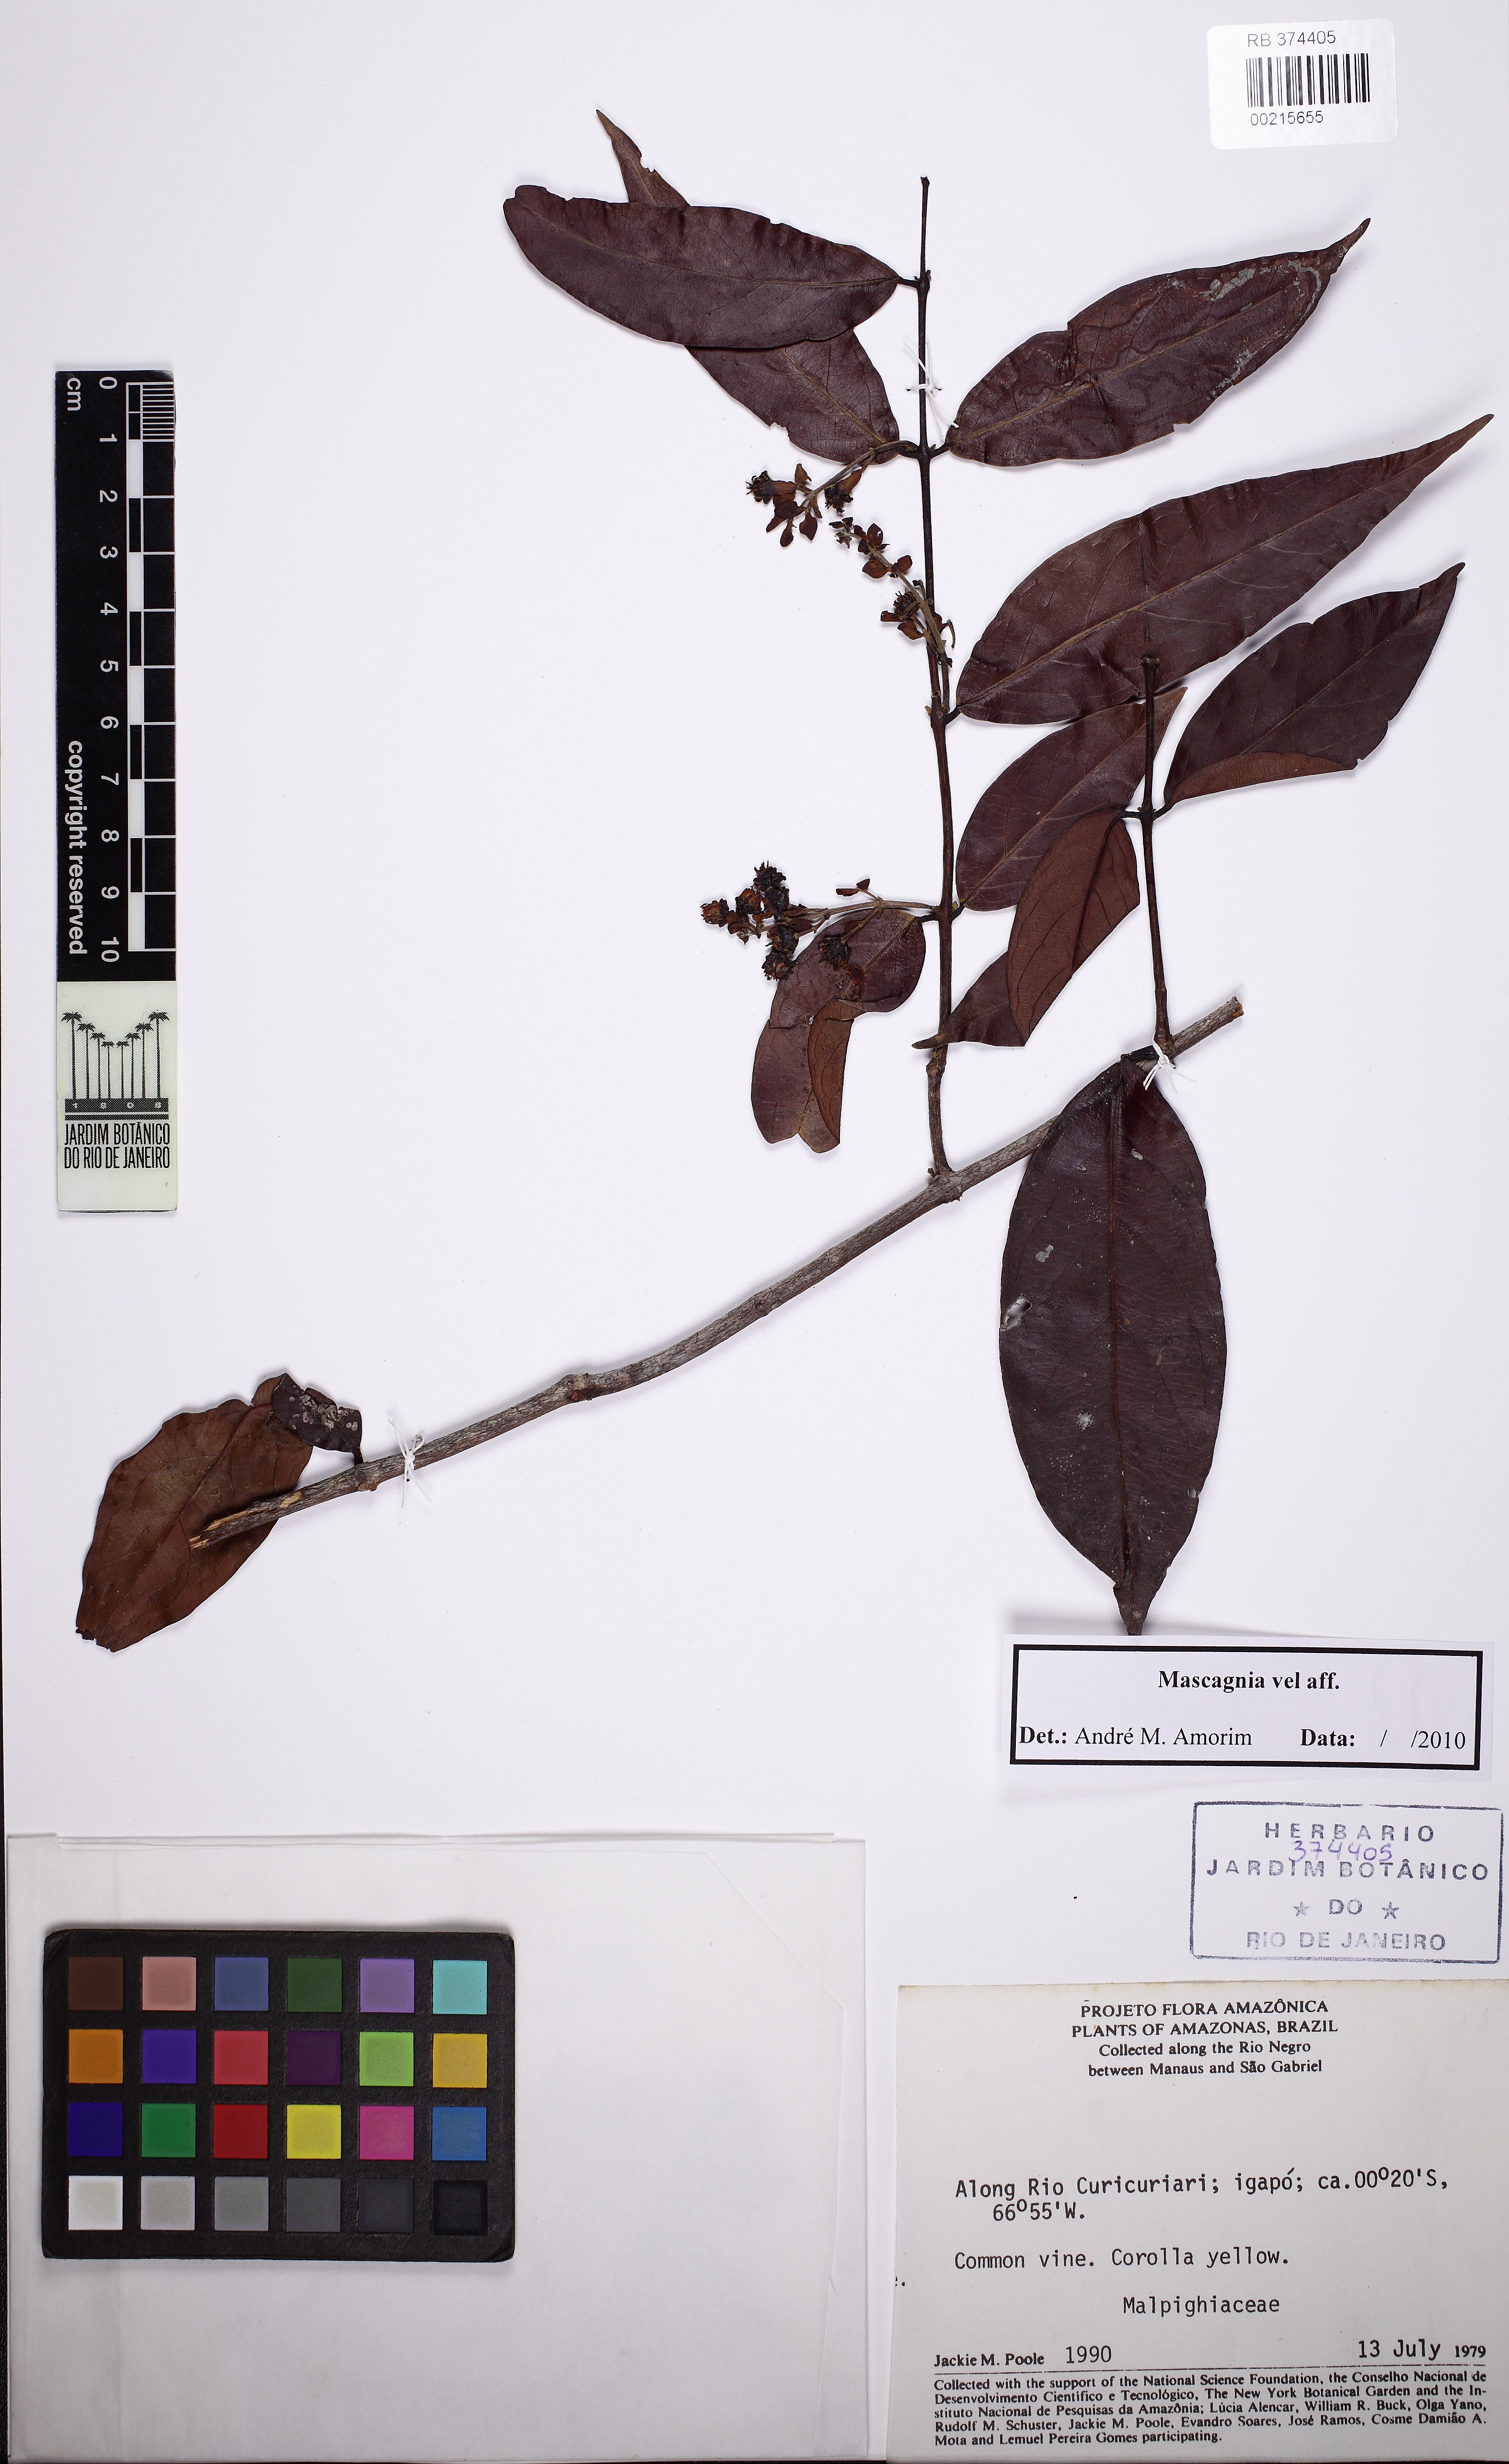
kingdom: Plantae
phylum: Tracheophyta
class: Magnoliopsida
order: Malpighiales
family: Malpighiaceae
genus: Dicella
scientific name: Dicella
